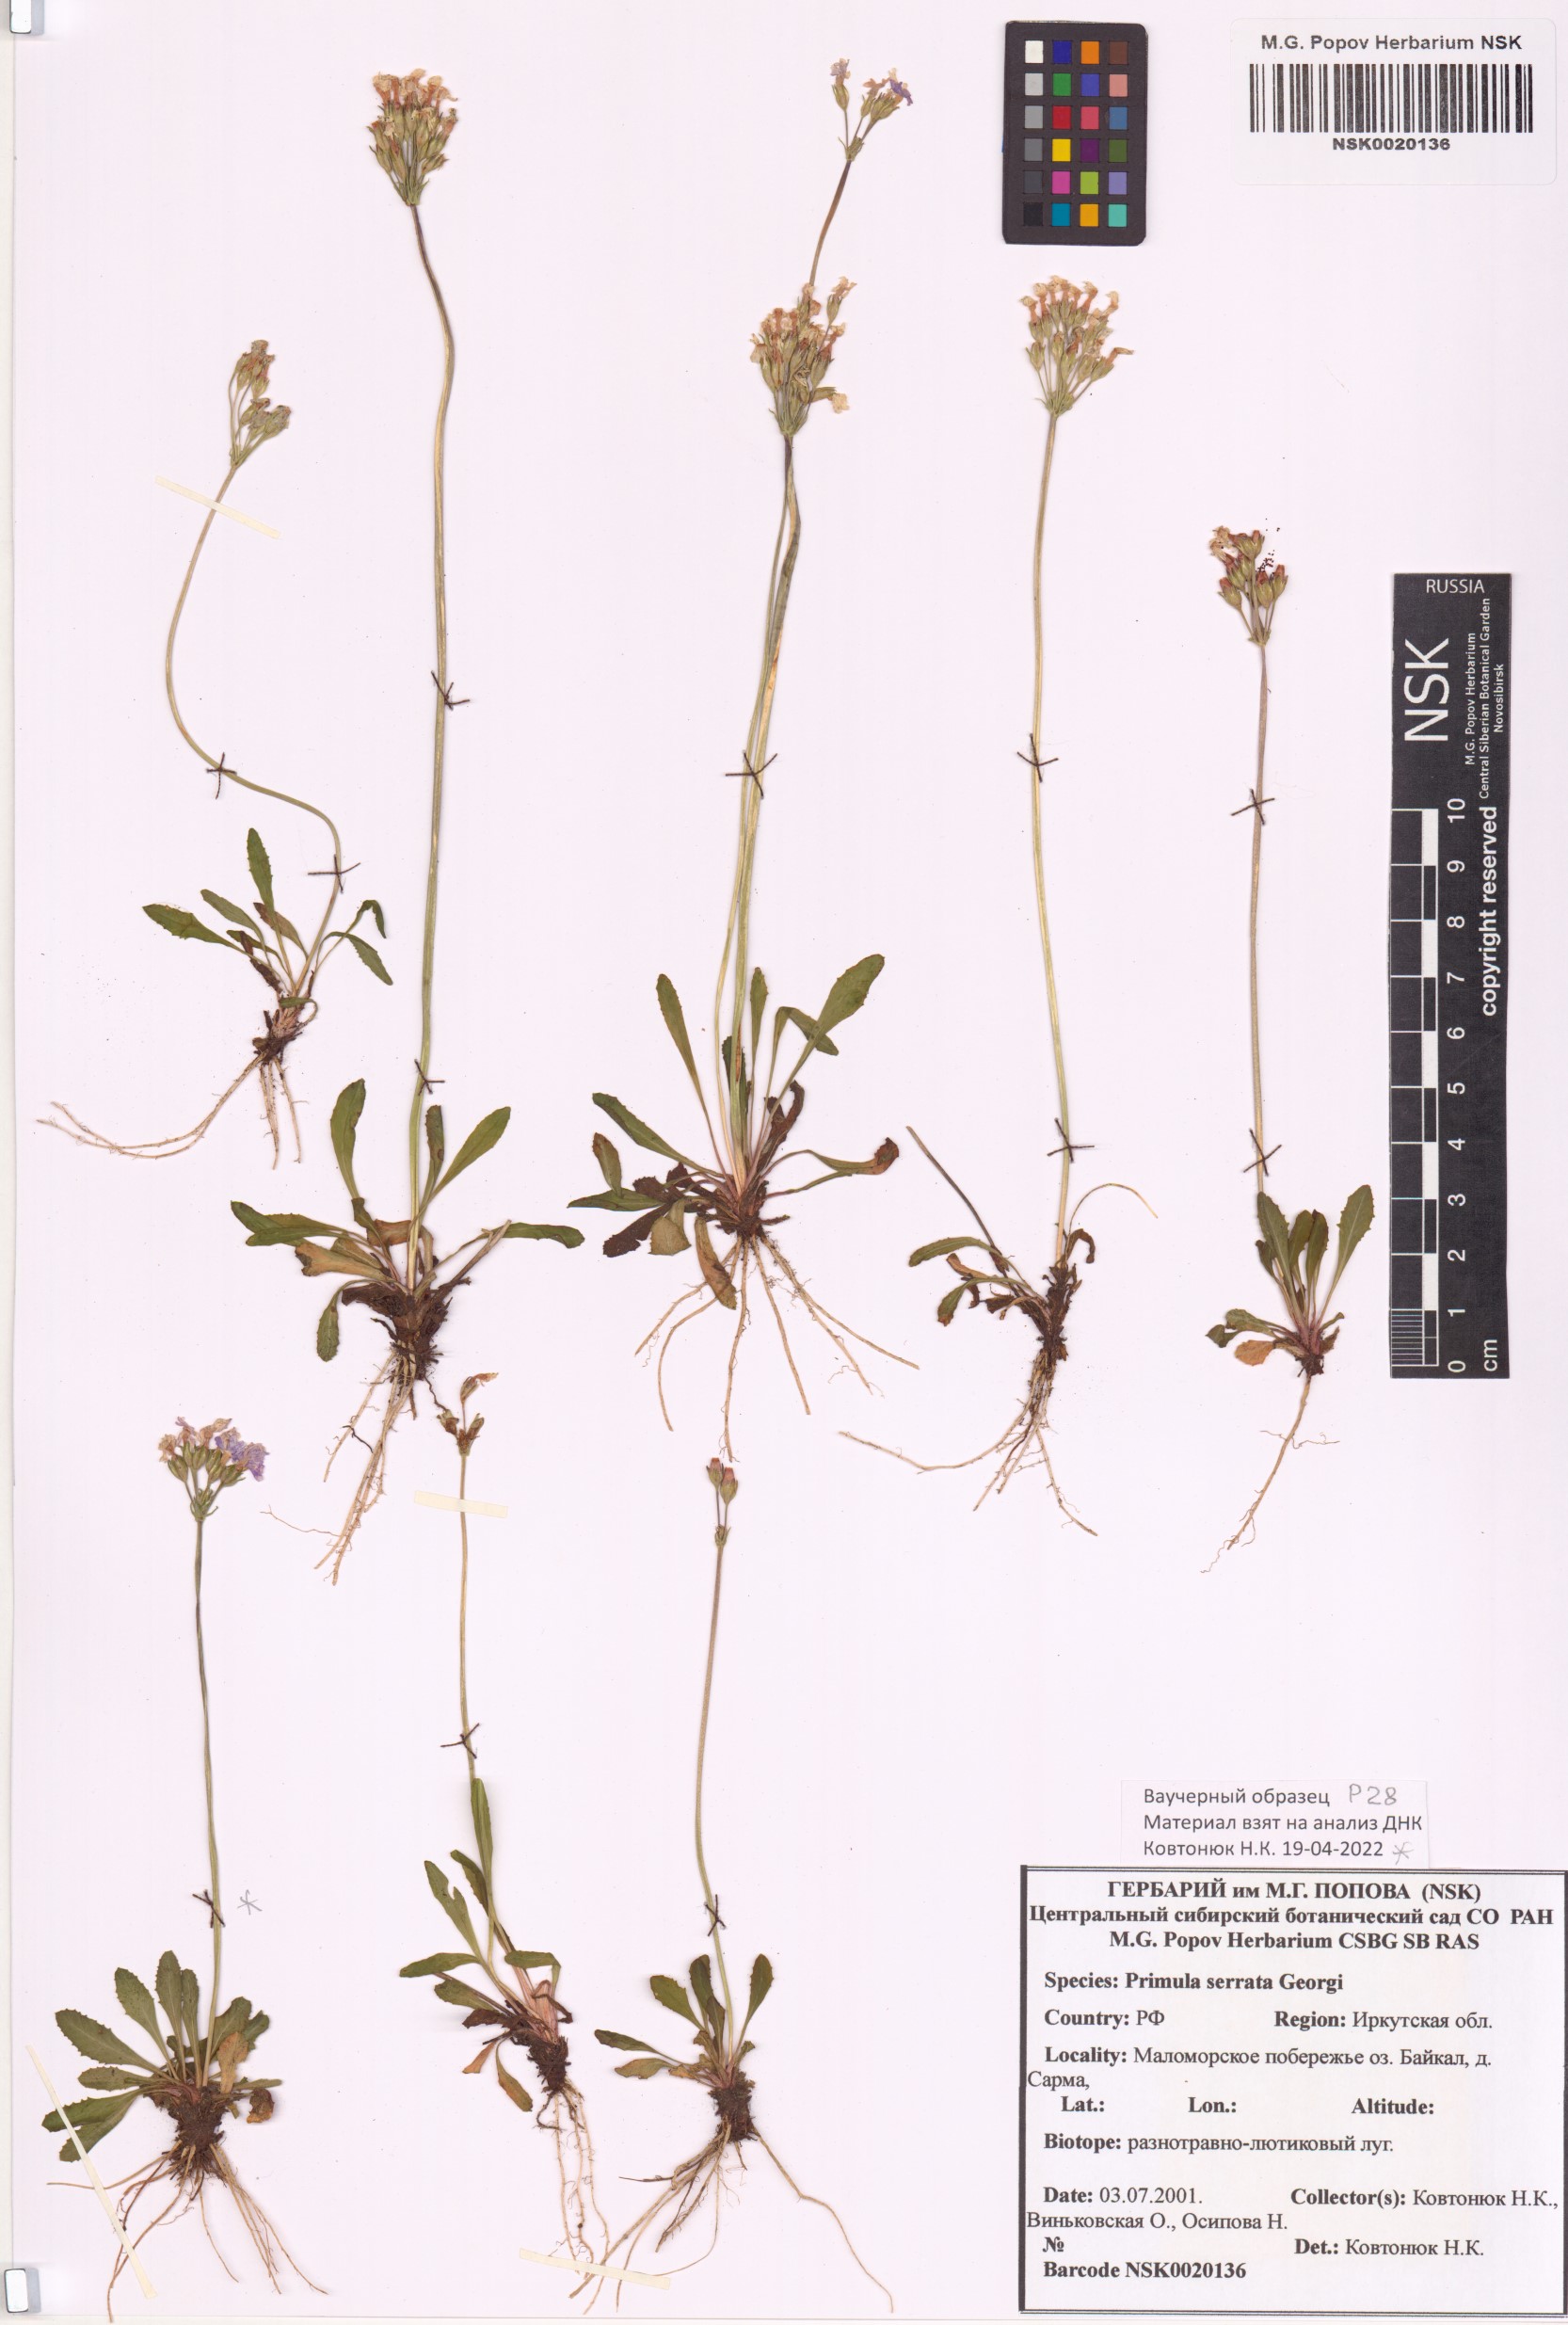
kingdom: Plantae
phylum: Tracheophyta
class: Magnoliopsida
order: Ericales
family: Primulaceae
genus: Primula
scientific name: Primula serrata
